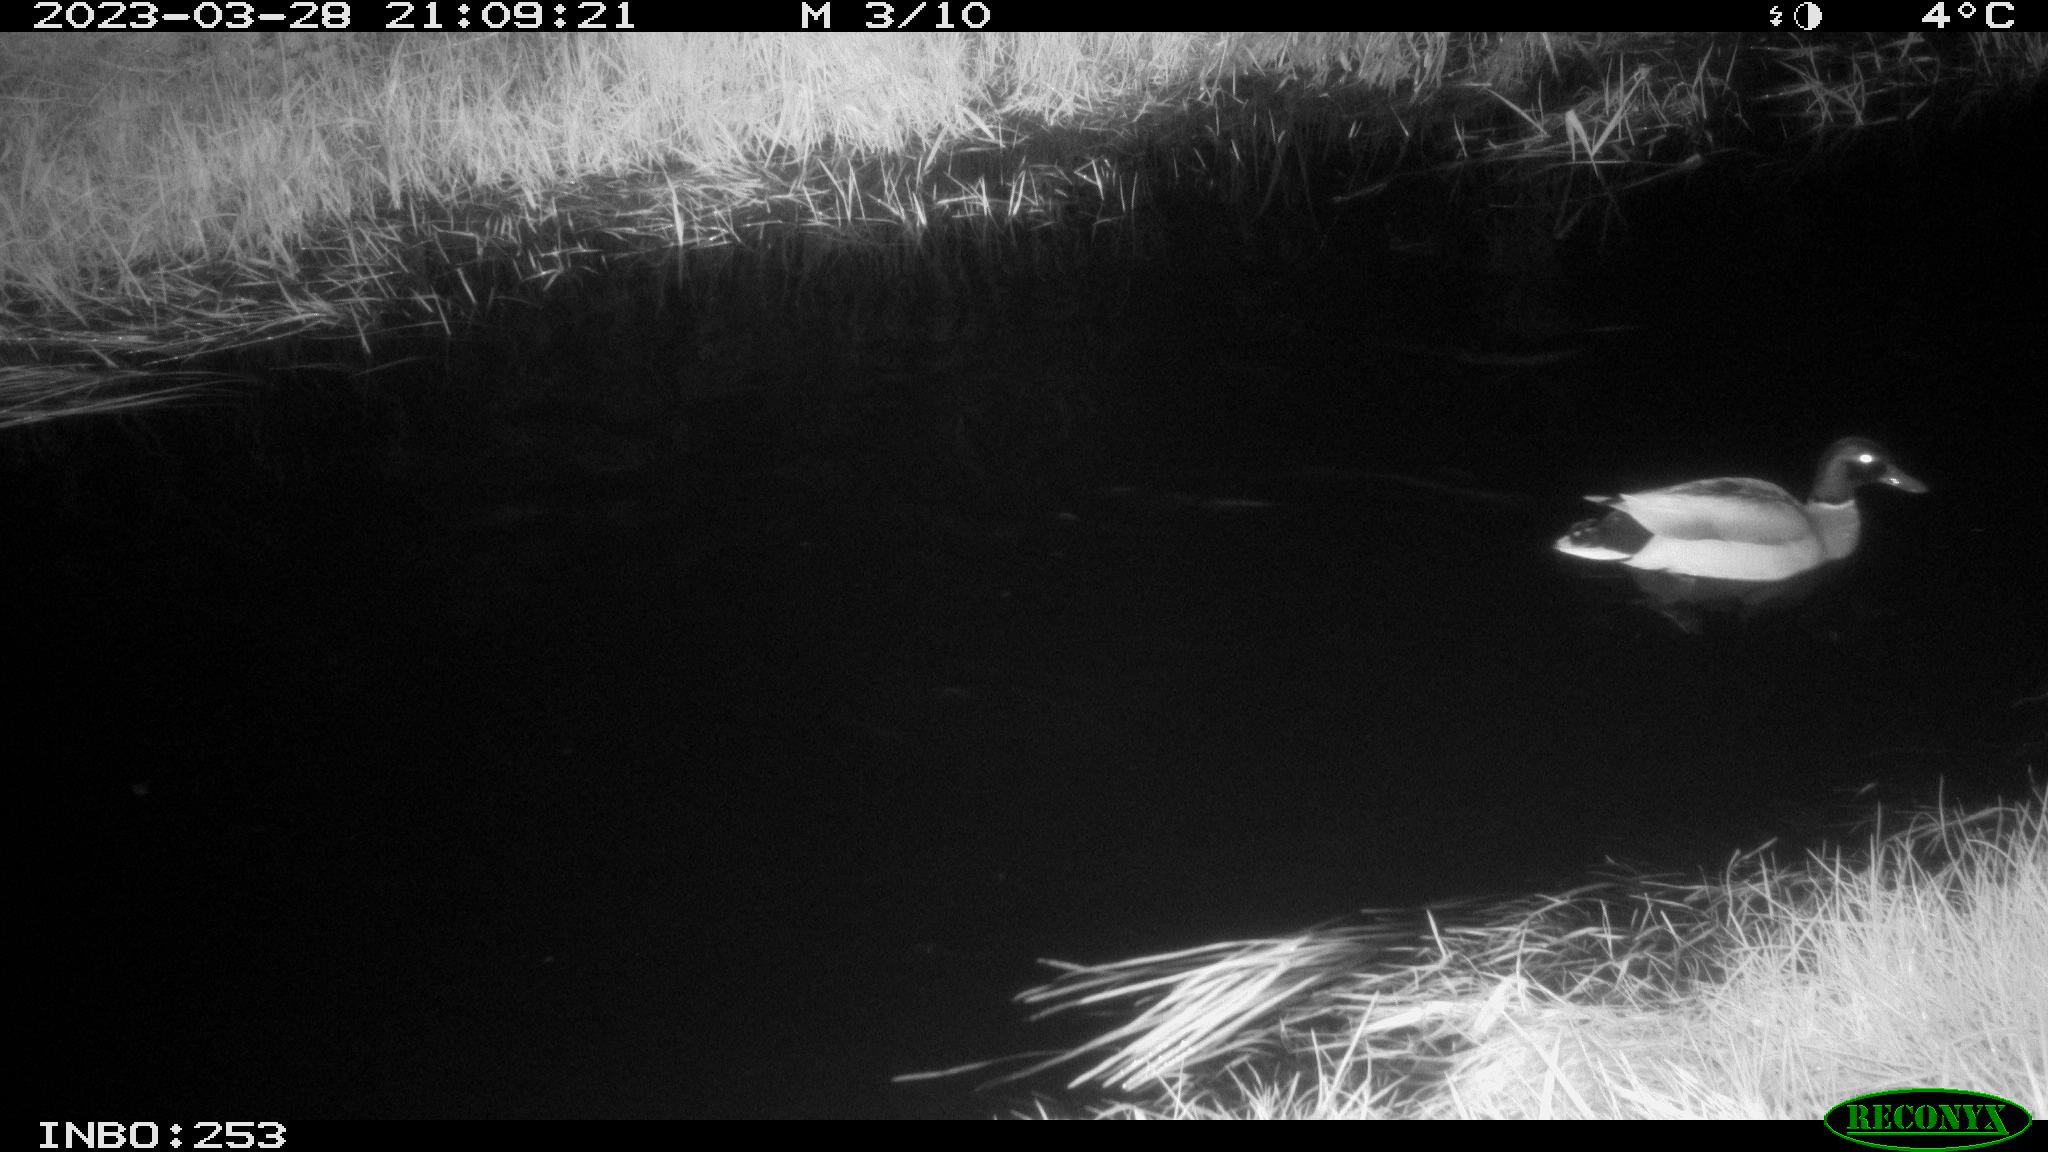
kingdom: Animalia
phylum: Chordata
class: Aves
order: Anseriformes
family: Anatidae
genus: Anas
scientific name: Anas
